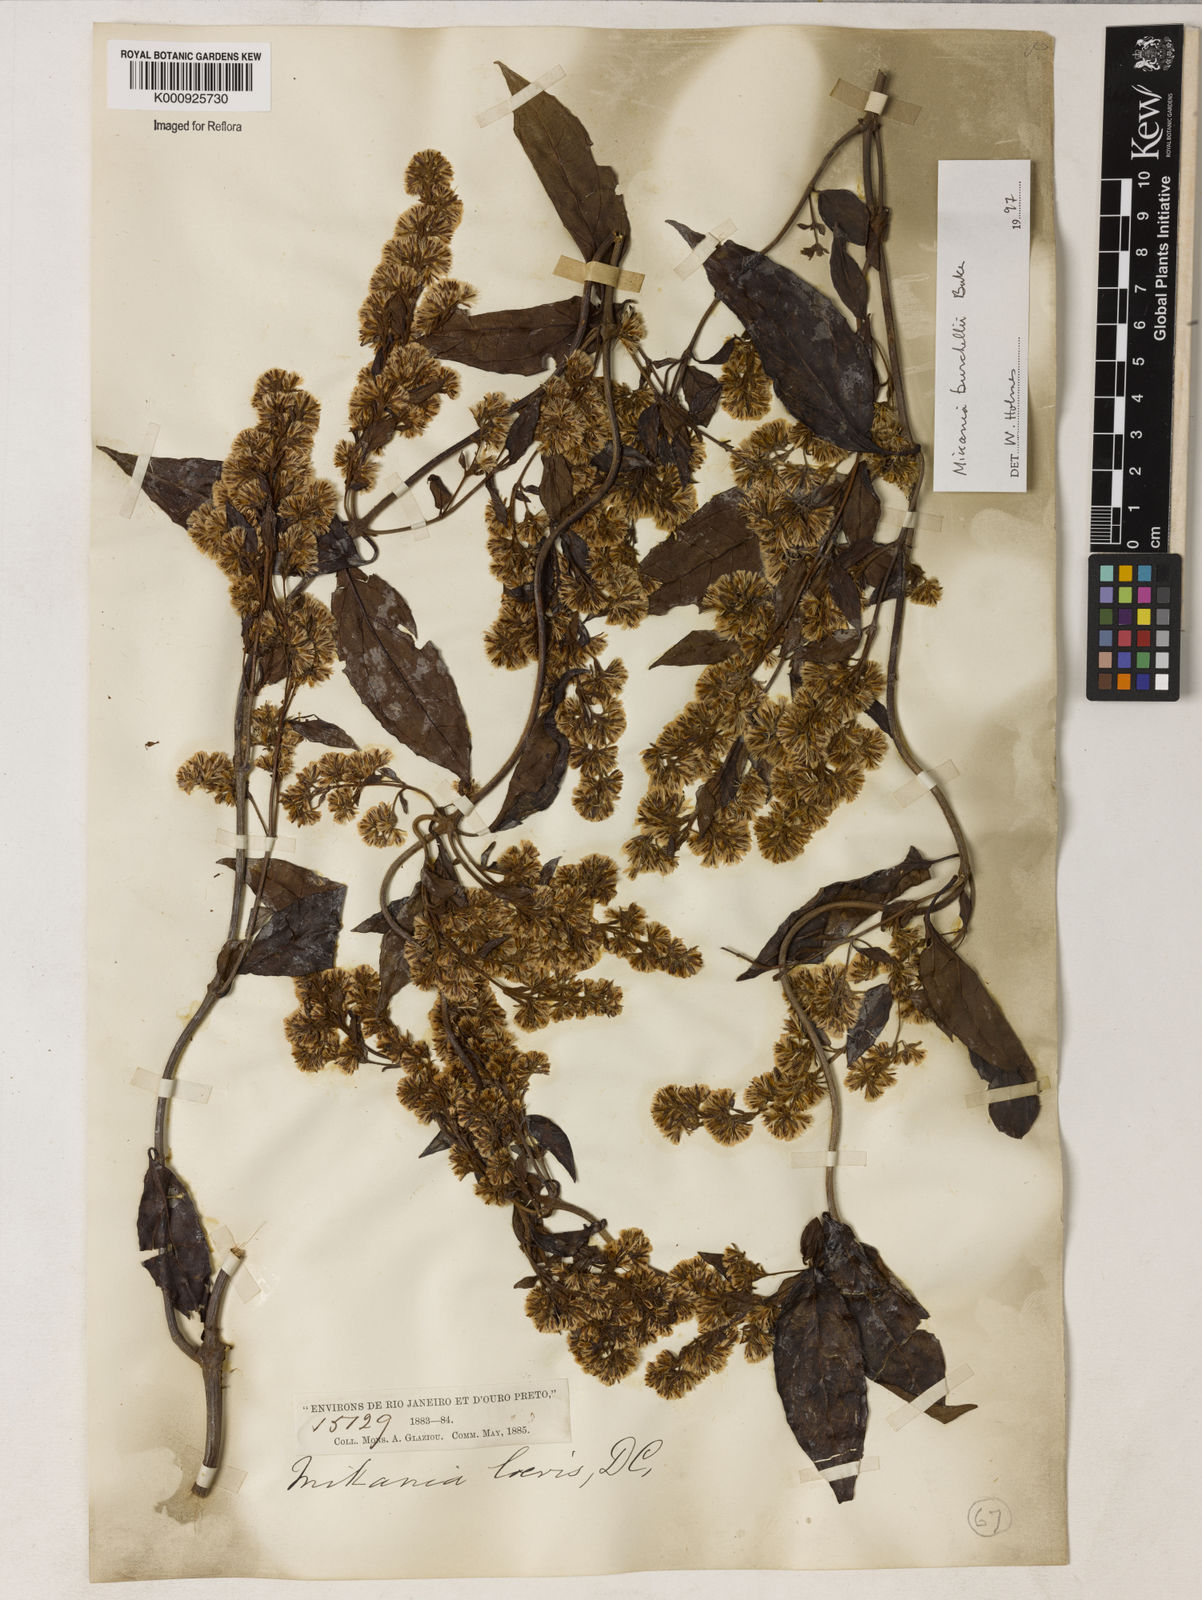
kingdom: Plantae
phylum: Tracheophyta
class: Magnoliopsida
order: Asterales
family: Asteraceae
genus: Mikania
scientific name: Mikania trinervis
